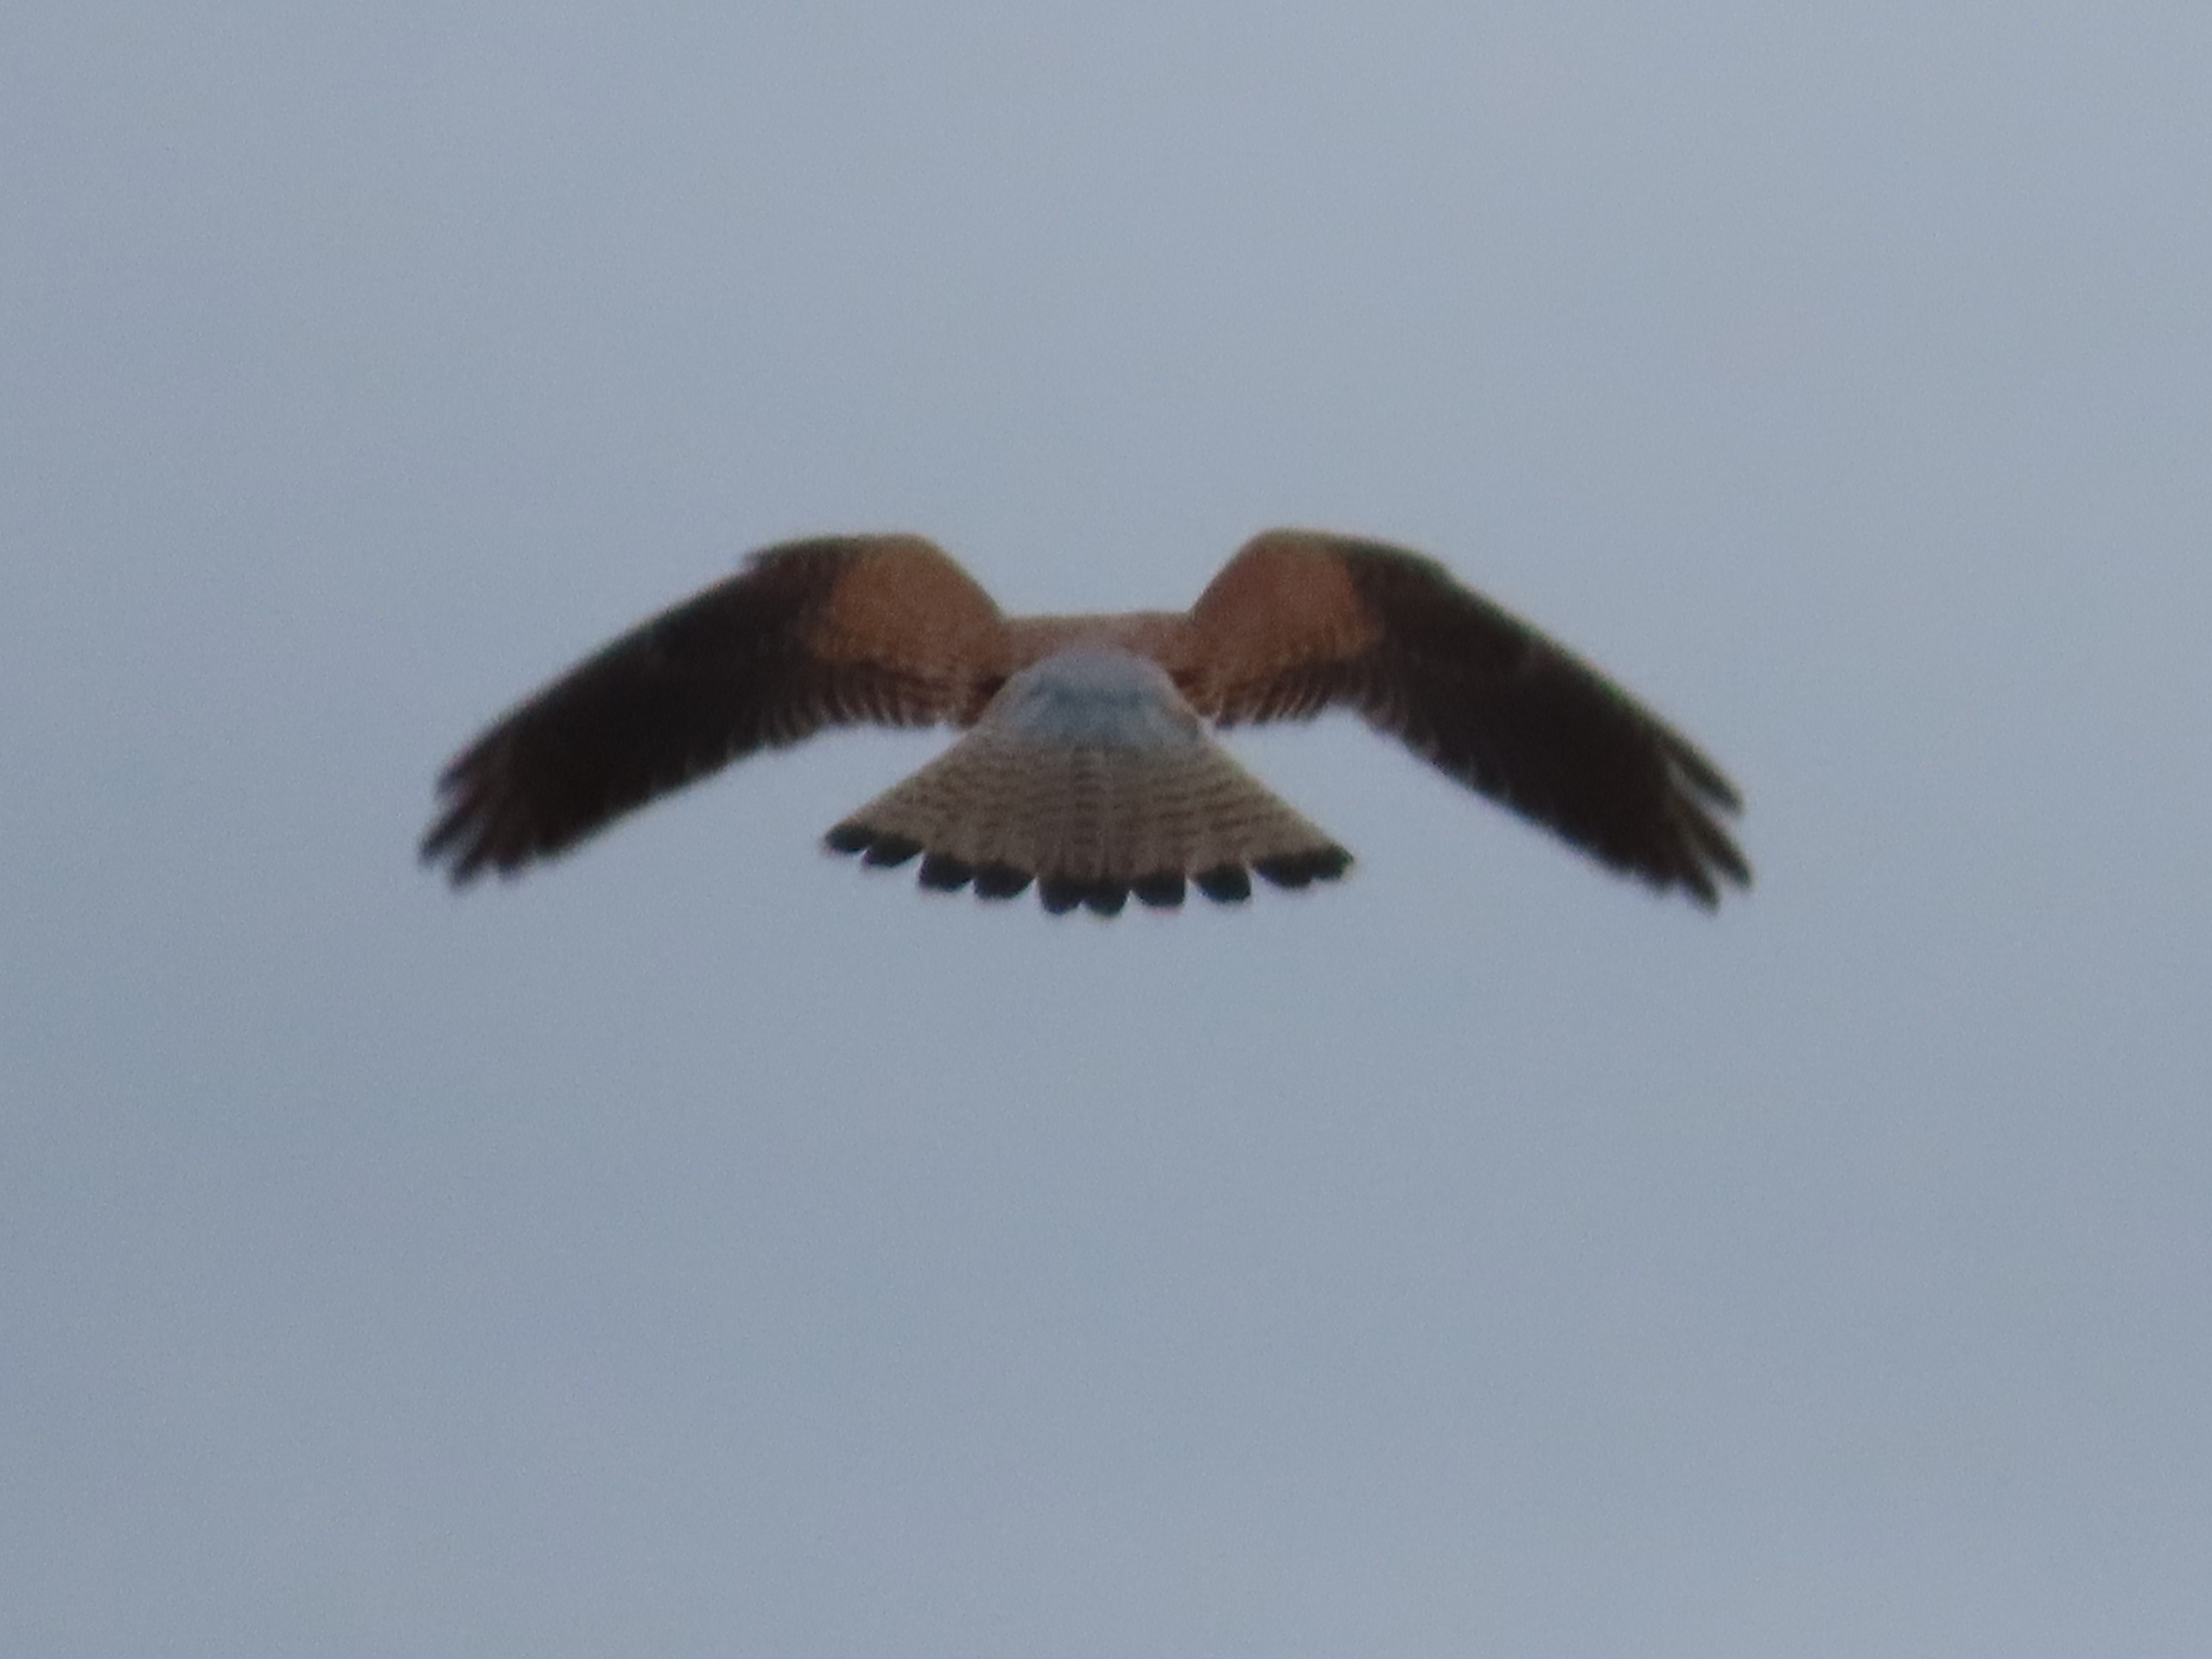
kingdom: Animalia
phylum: Chordata
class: Aves
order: Falconiformes
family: Falconidae
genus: Falco
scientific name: Falco tinnunculus
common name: Tårnfalk
